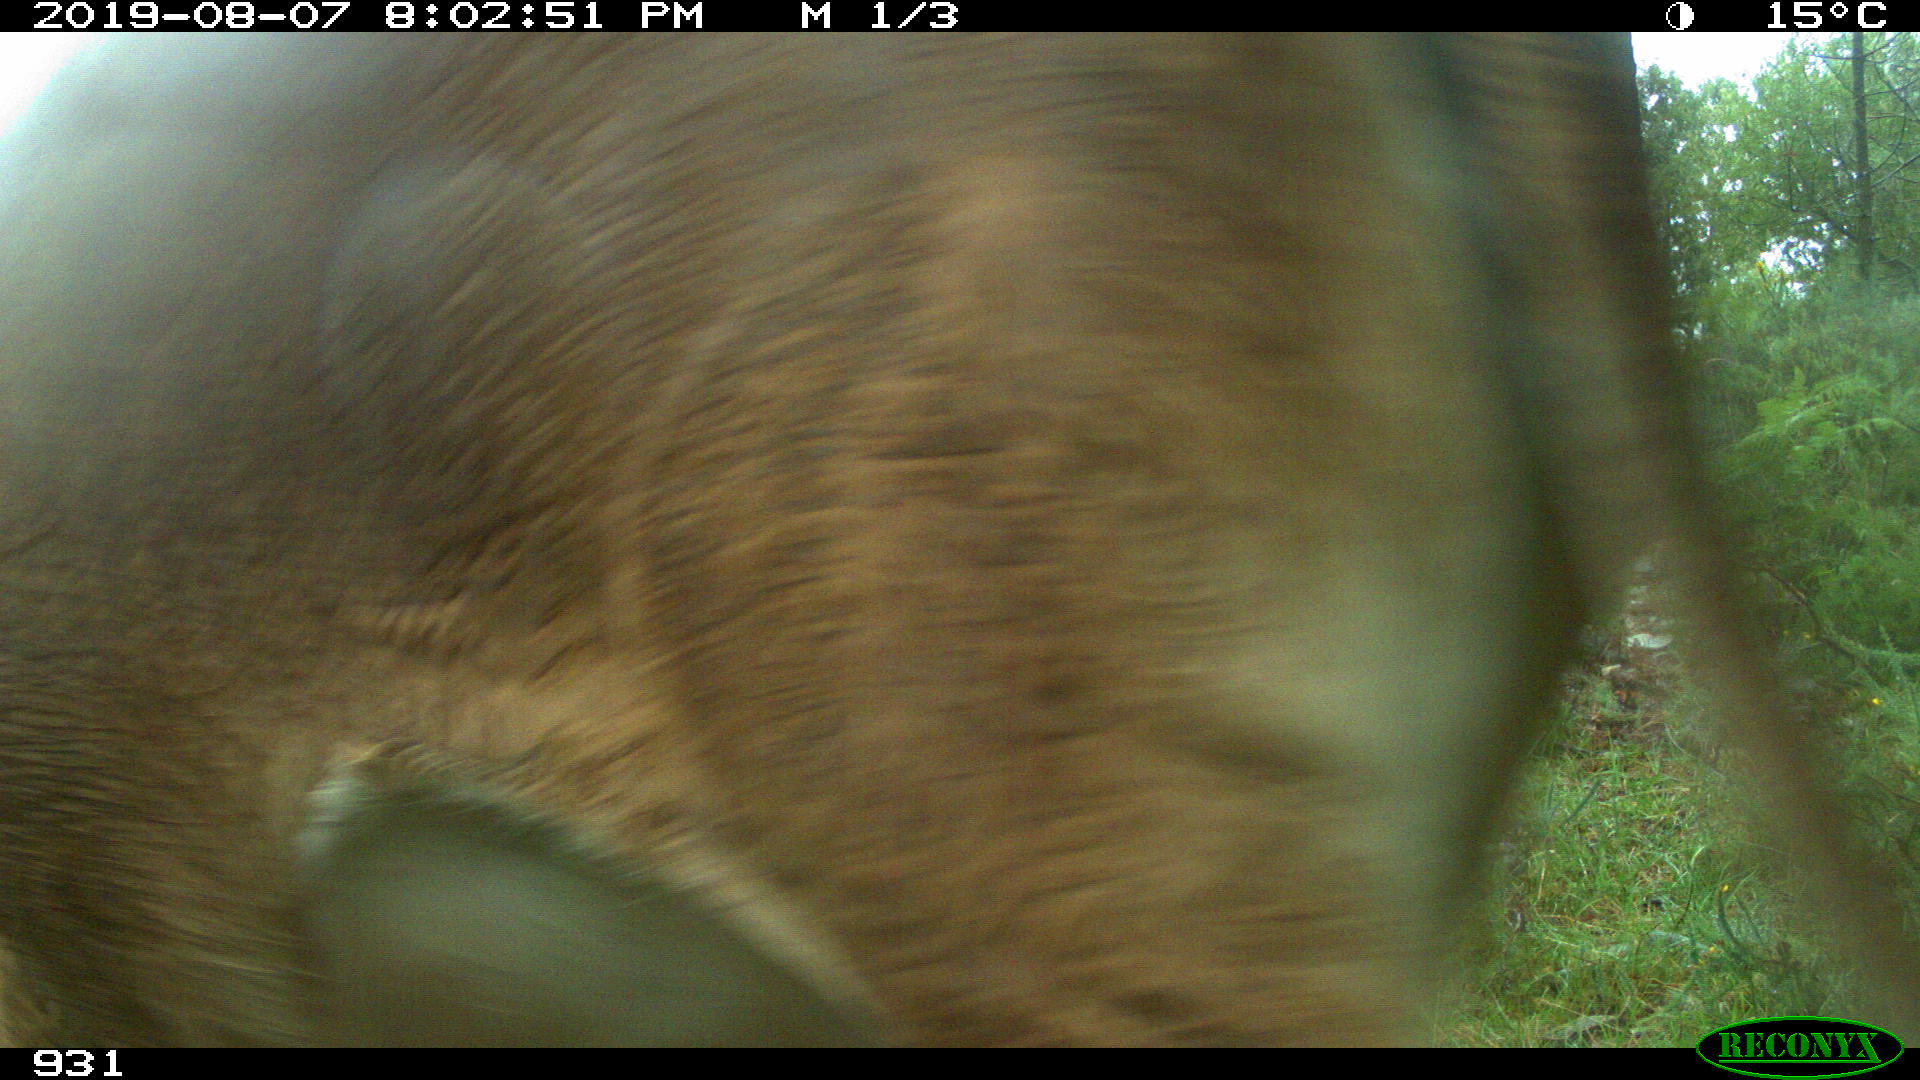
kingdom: Animalia
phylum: Chordata
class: Mammalia
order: Artiodactyla
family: Bovidae
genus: Bos
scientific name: Bos taurus
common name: Domesticated cattle
